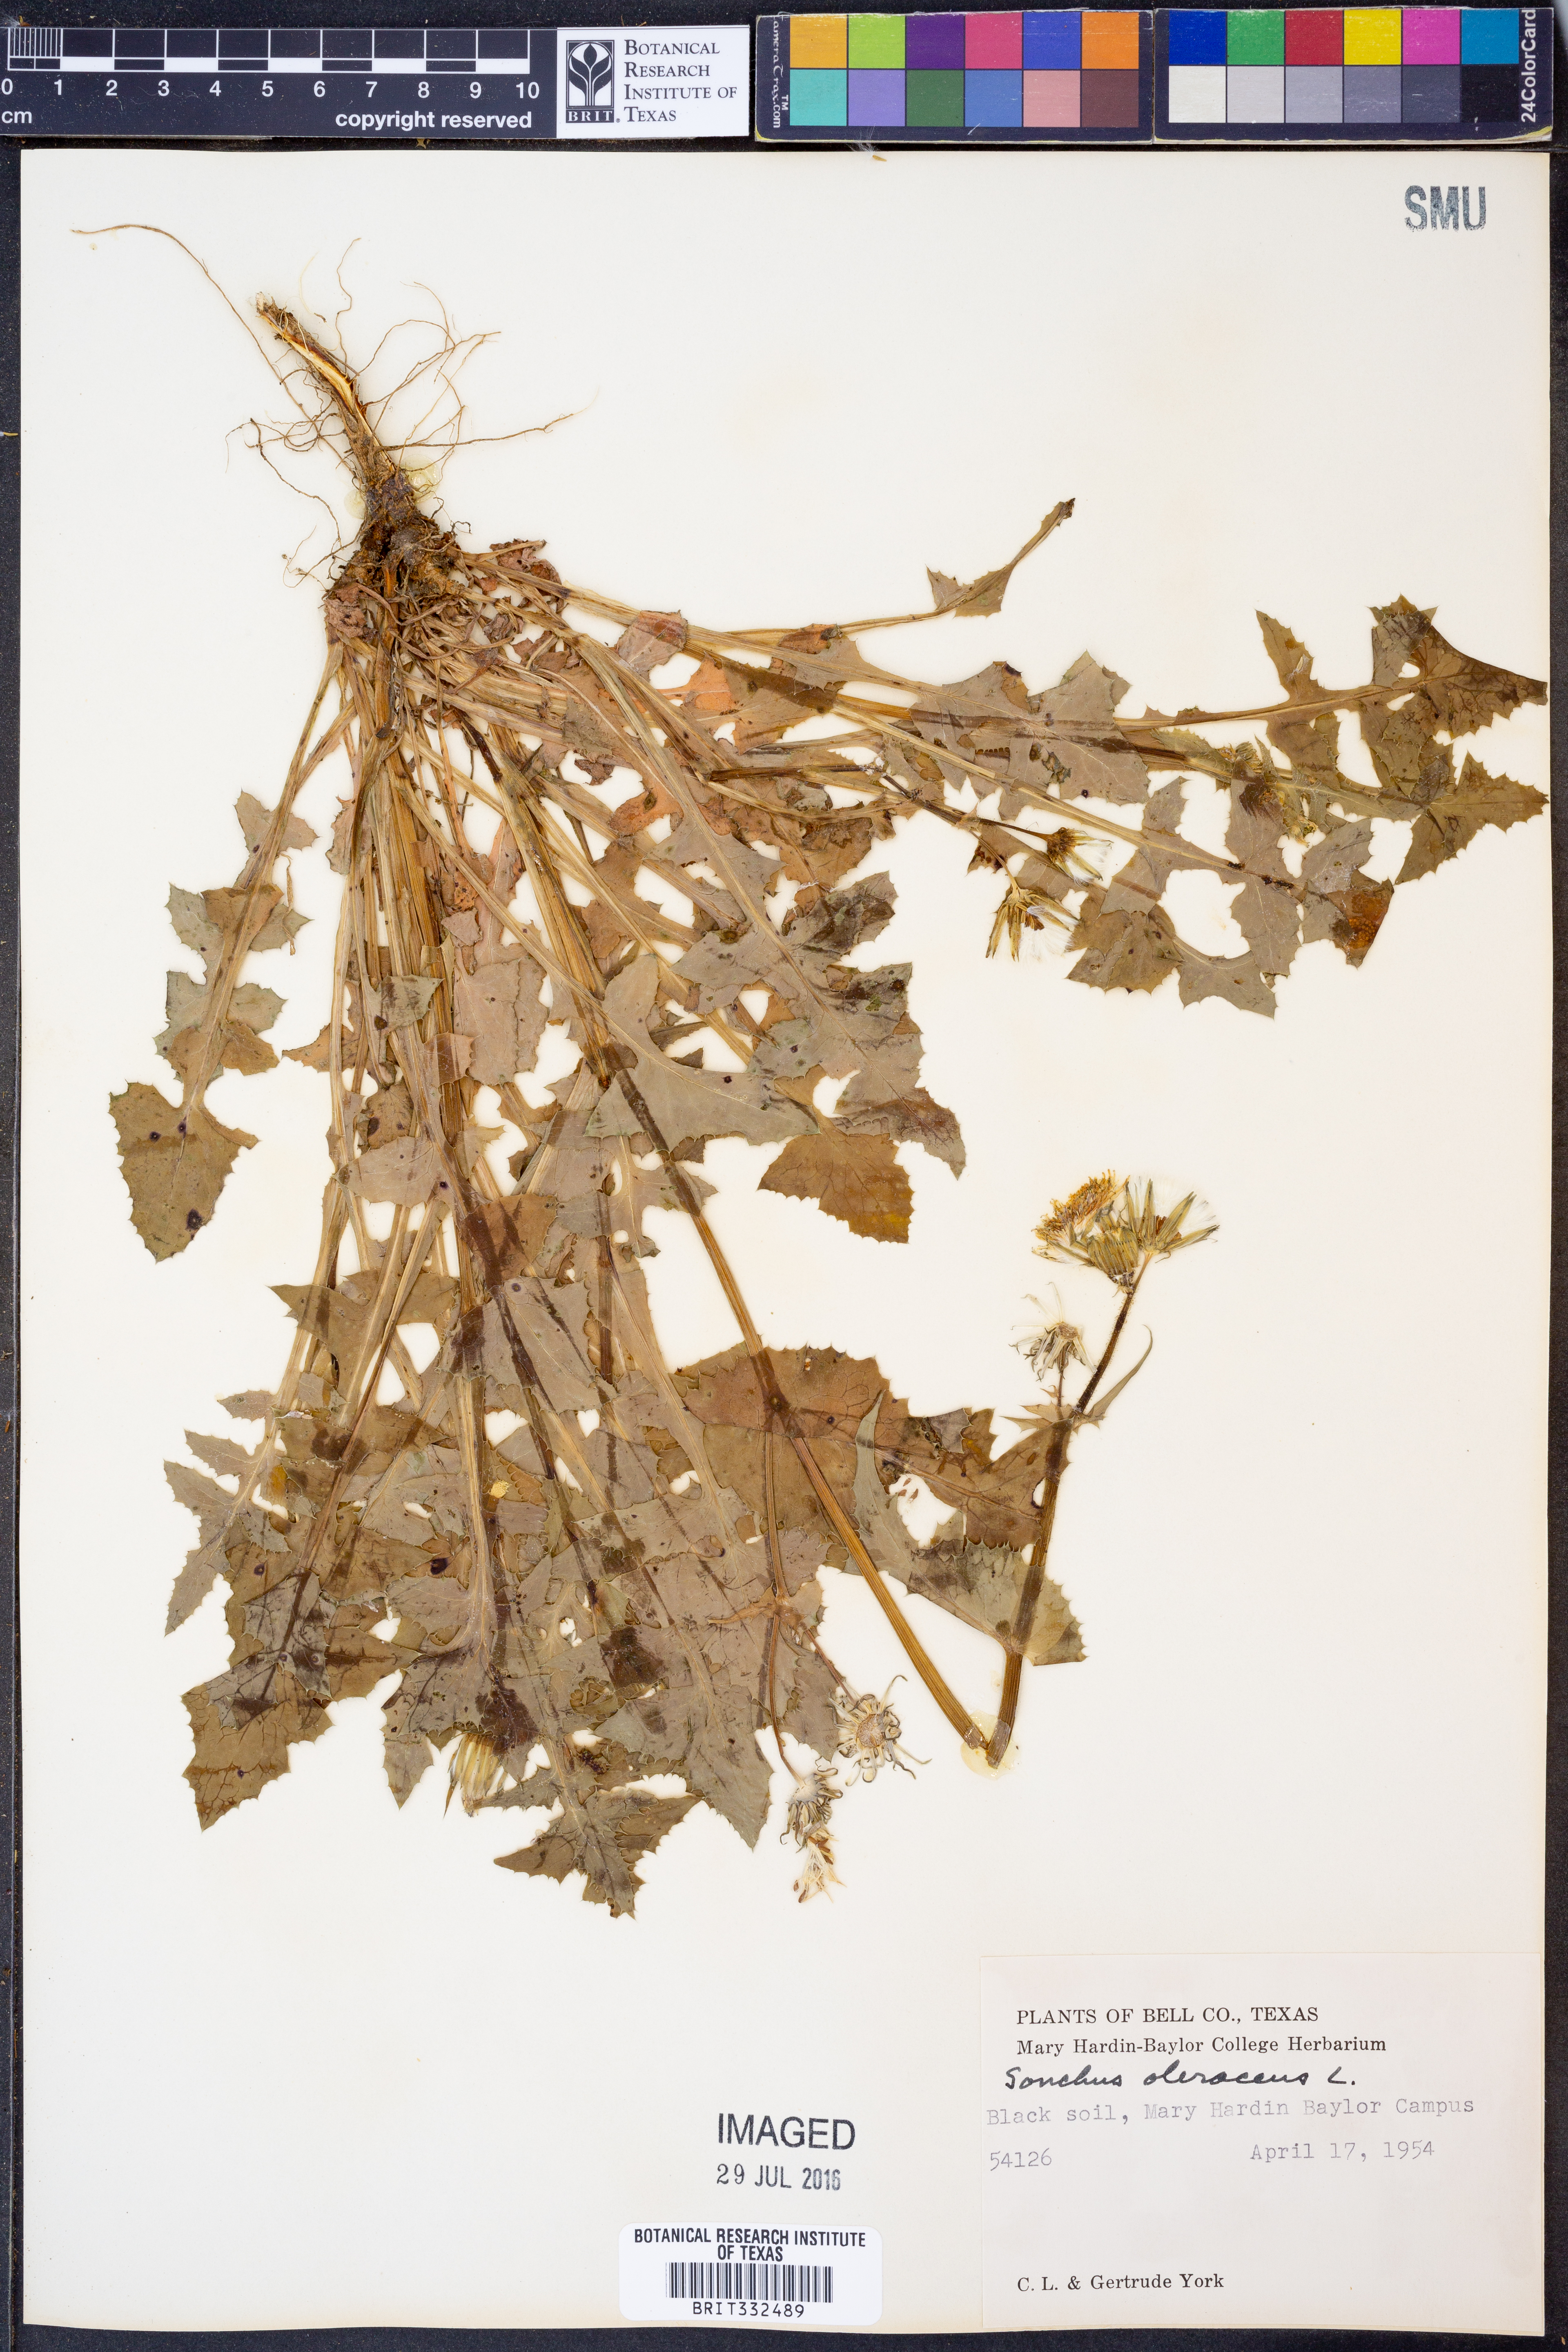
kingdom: Plantae
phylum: Tracheophyta
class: Magnoliopsida
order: Asterales
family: Asteraceae
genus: Sonchus
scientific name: Sonchus oleraceus
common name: Common sowthistle
